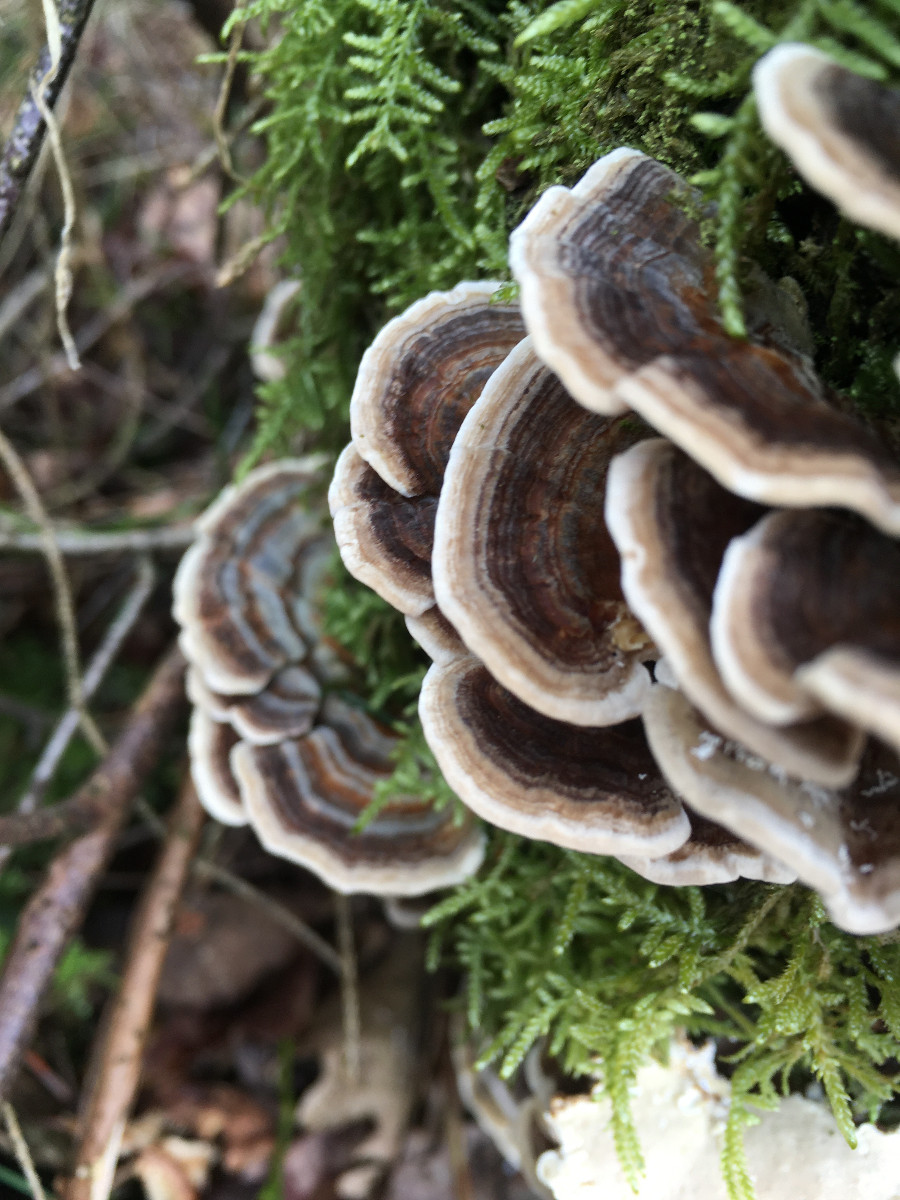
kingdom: Fungi
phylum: Basidiomycota
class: Agaricomycetes
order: Polyporales
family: Polyporaceae
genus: Trametes
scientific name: Trametes versicolor
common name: broget læderporesvamp
